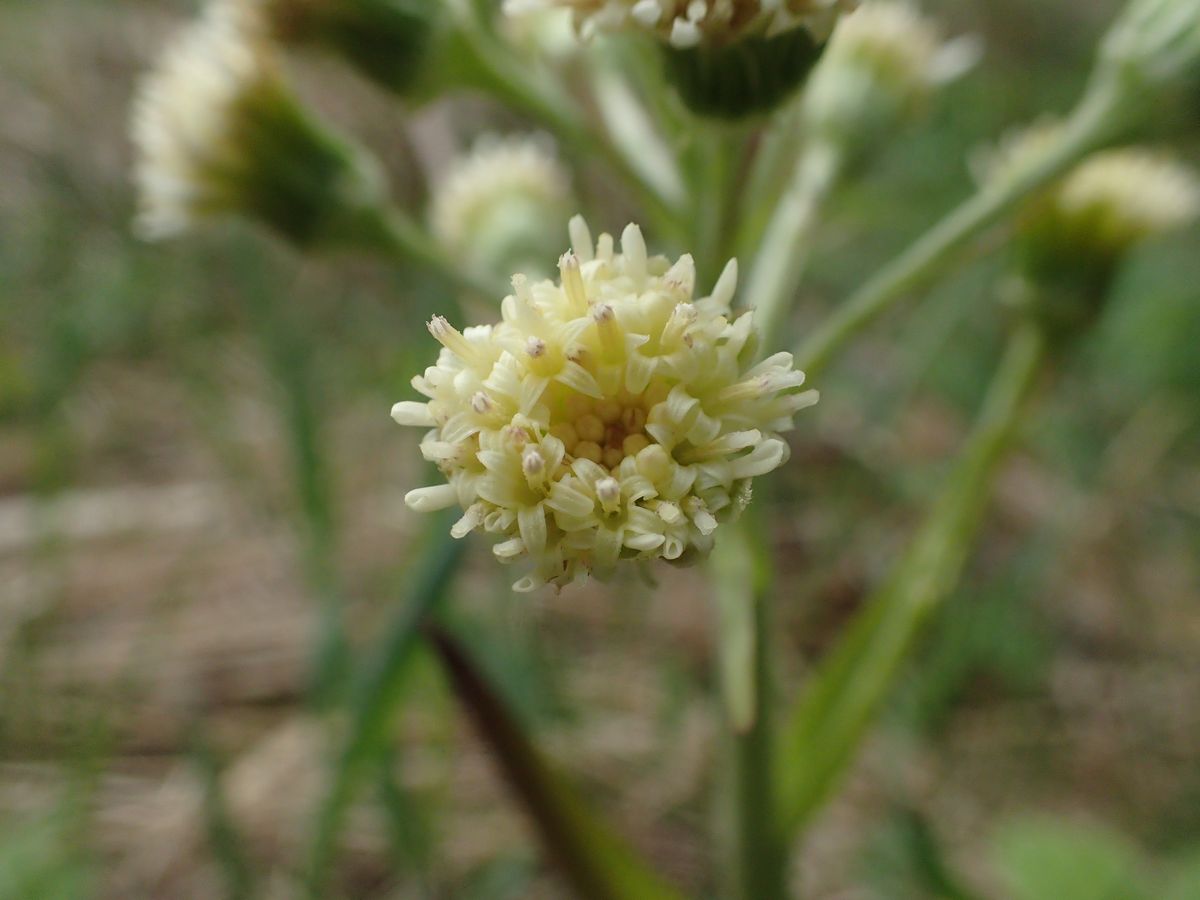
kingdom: Plantae
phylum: Tracheophyta
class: Magnoliopsida
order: Asterales
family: Asteraceae
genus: Petasites
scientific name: Petasites spurius
